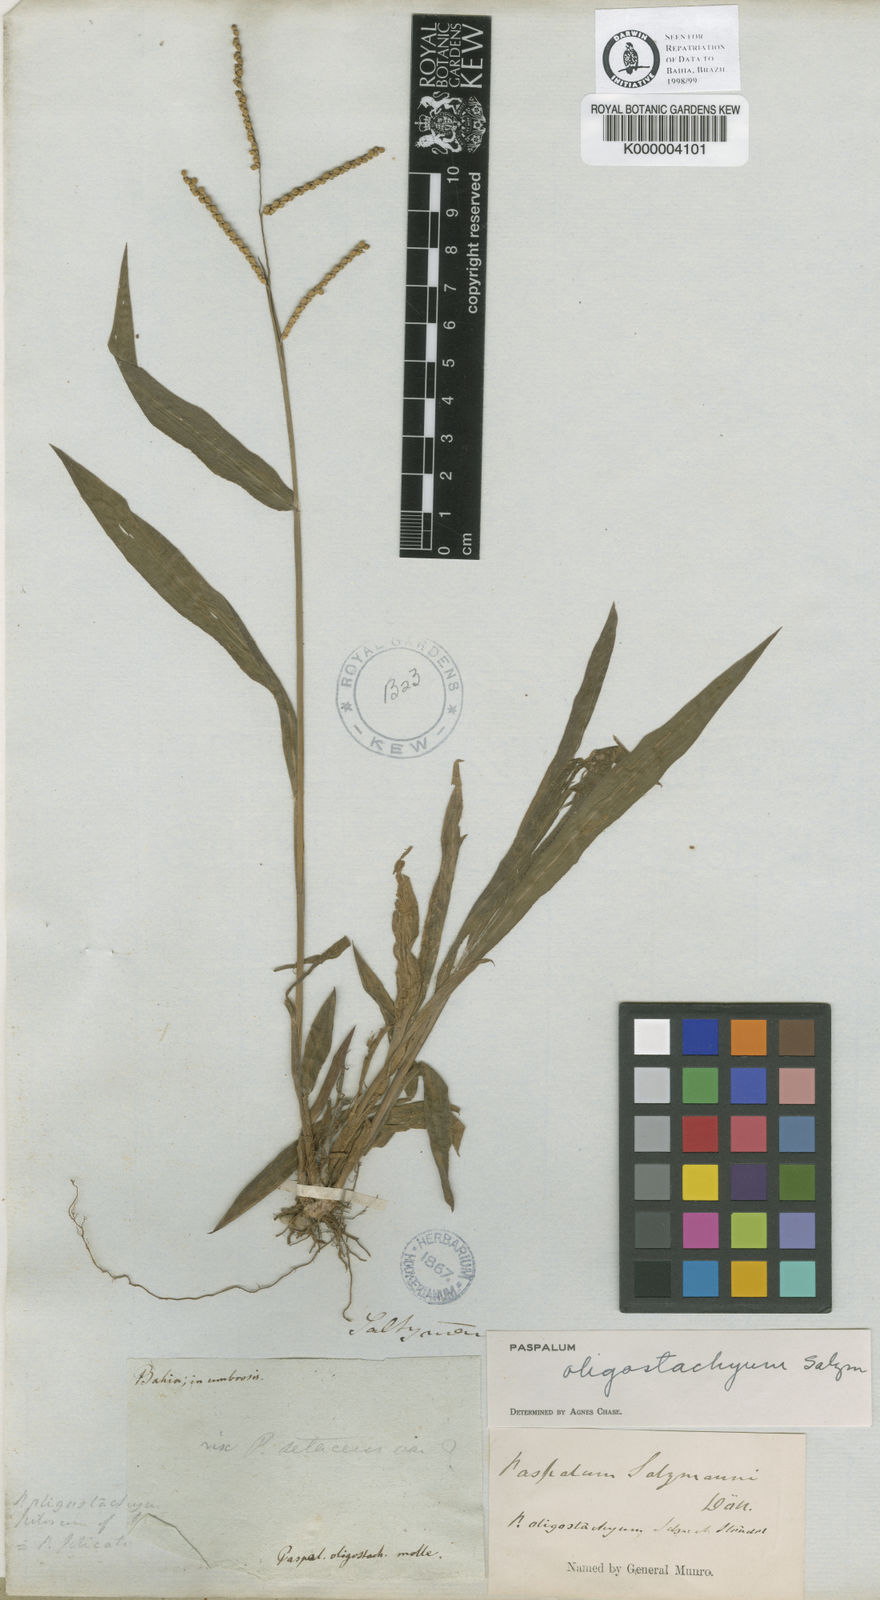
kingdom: Plantae
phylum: Tracheophyta
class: Liliopsida
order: Poales
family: Poaceae
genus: Paspalum
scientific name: Paspalum oligostachyum
